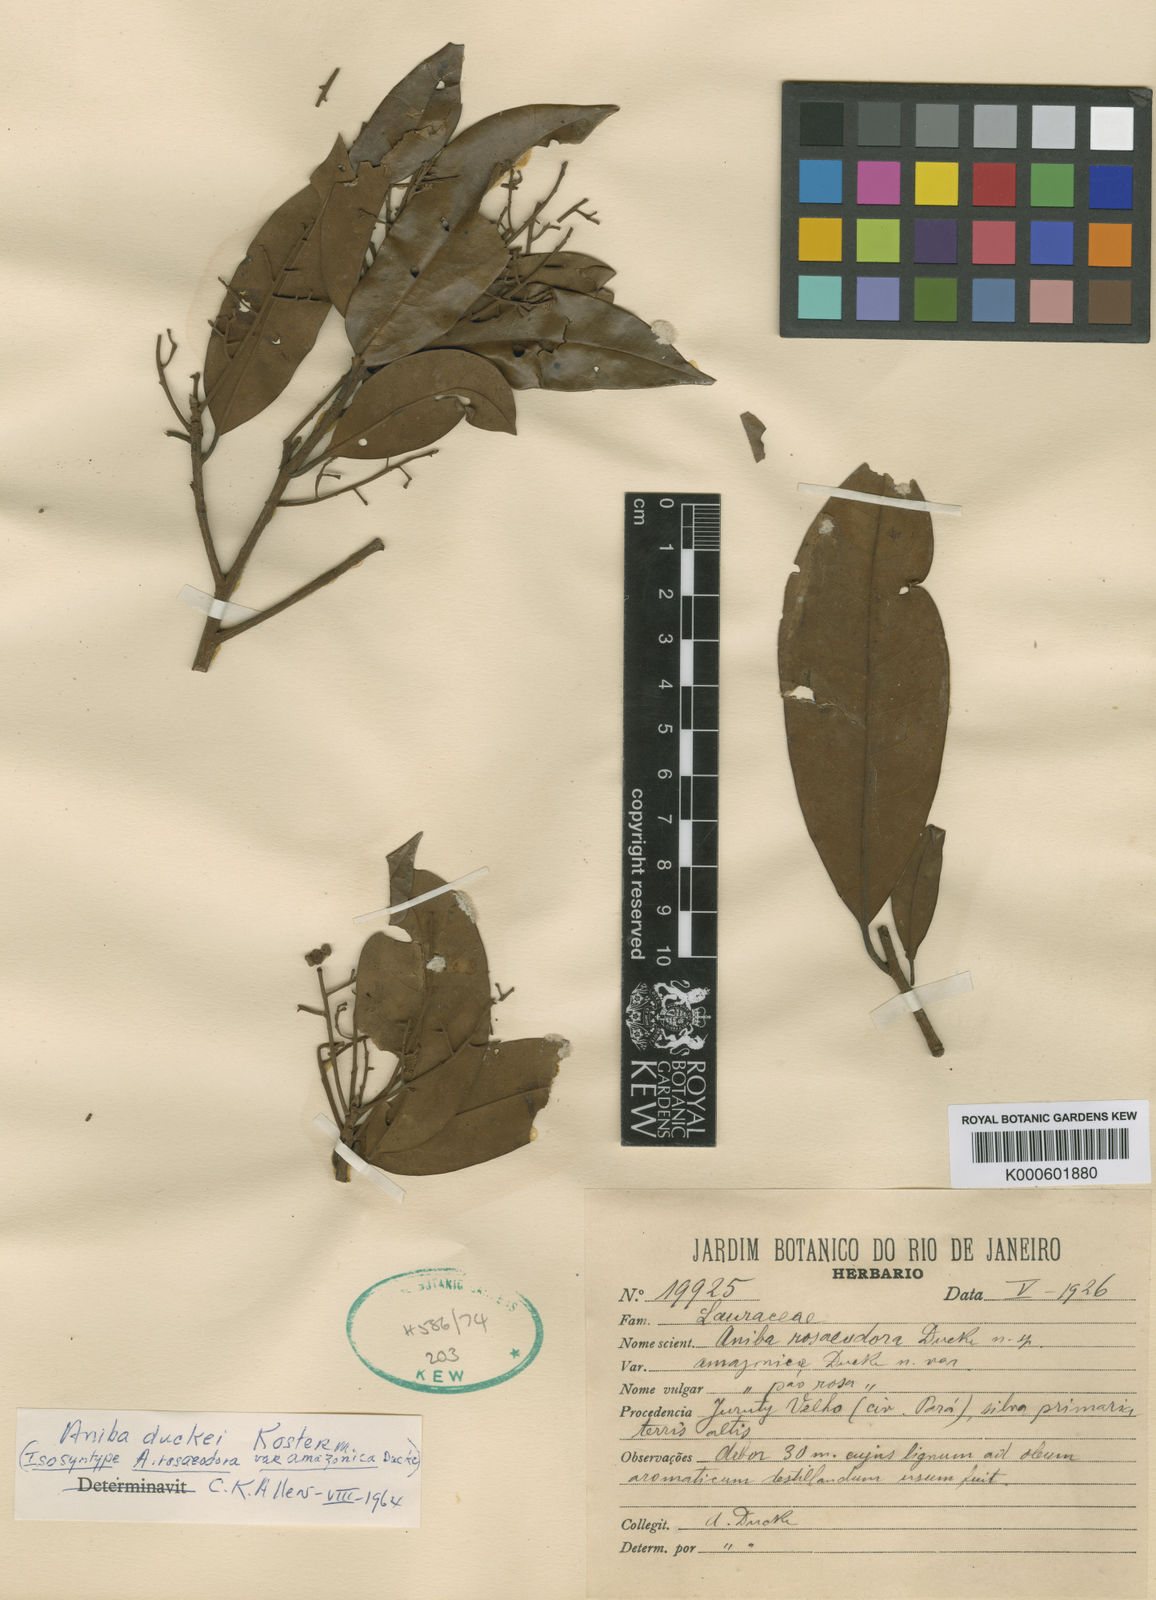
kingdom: Plantae
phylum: Tracheophyta
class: Magnoliopsida
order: Laurales
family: Lauraceae
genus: Aniba
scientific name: Aniba rosaeodora
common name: Brazilian rosewood
